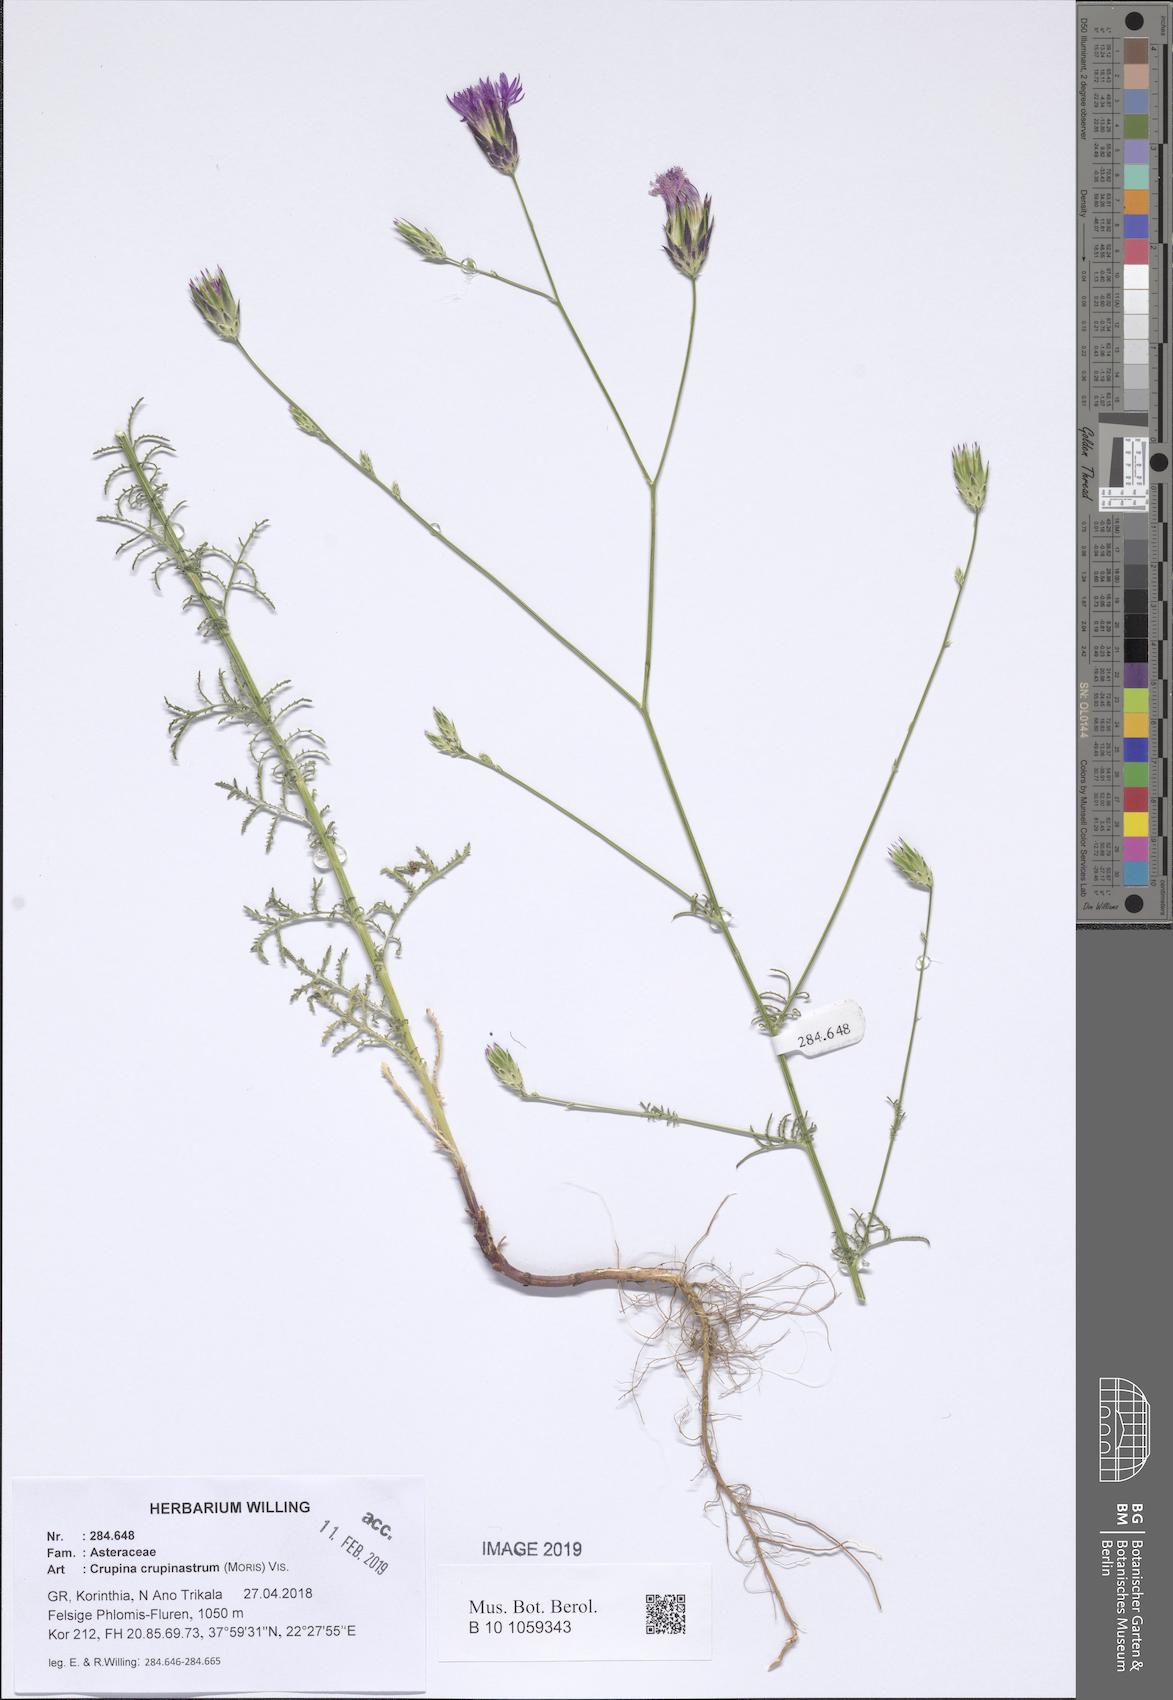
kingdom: Plantae
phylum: Tracheophyta
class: Magnoliopsida
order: Asterales
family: Asteraceae
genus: Crupina
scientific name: Crupina crupinastrum
